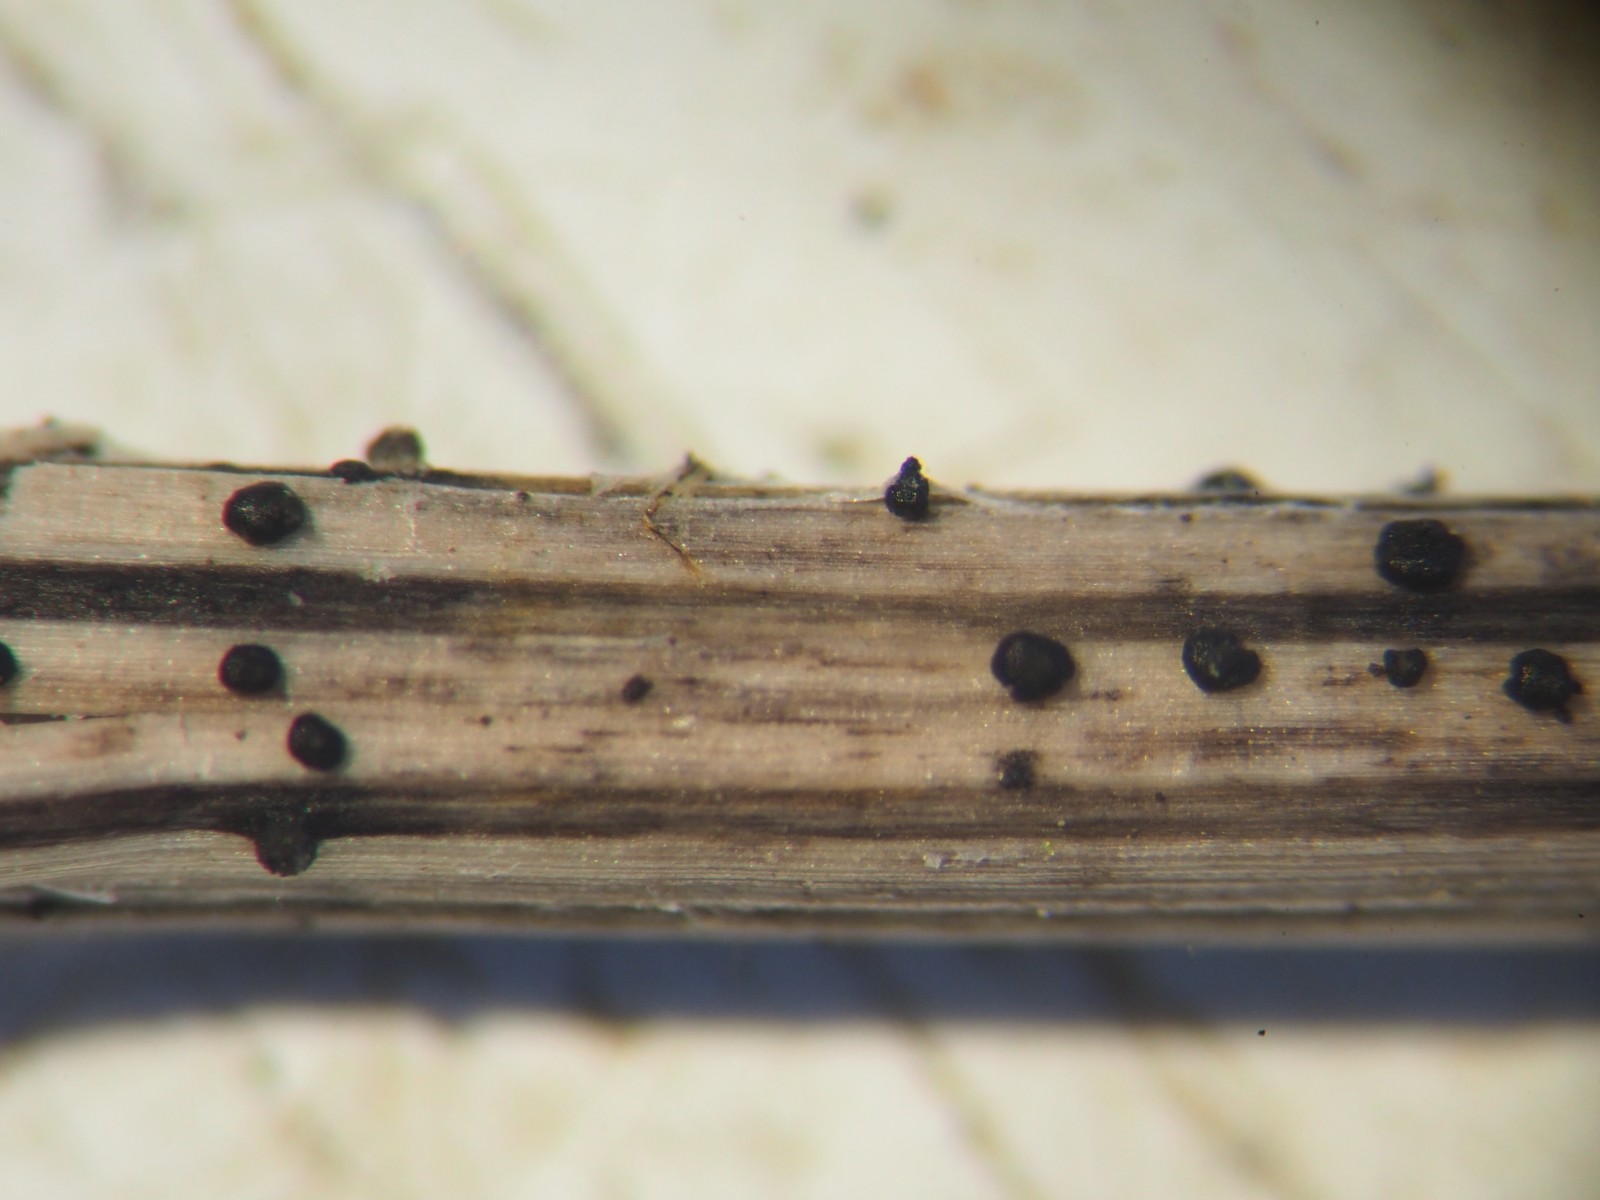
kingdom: Fungi
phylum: Ascomycota
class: Dothideomycetes
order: Pleosporales
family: Leptosphaeriaceae
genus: Leptosphaeria
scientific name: Leptosphaeria macrocapsa
